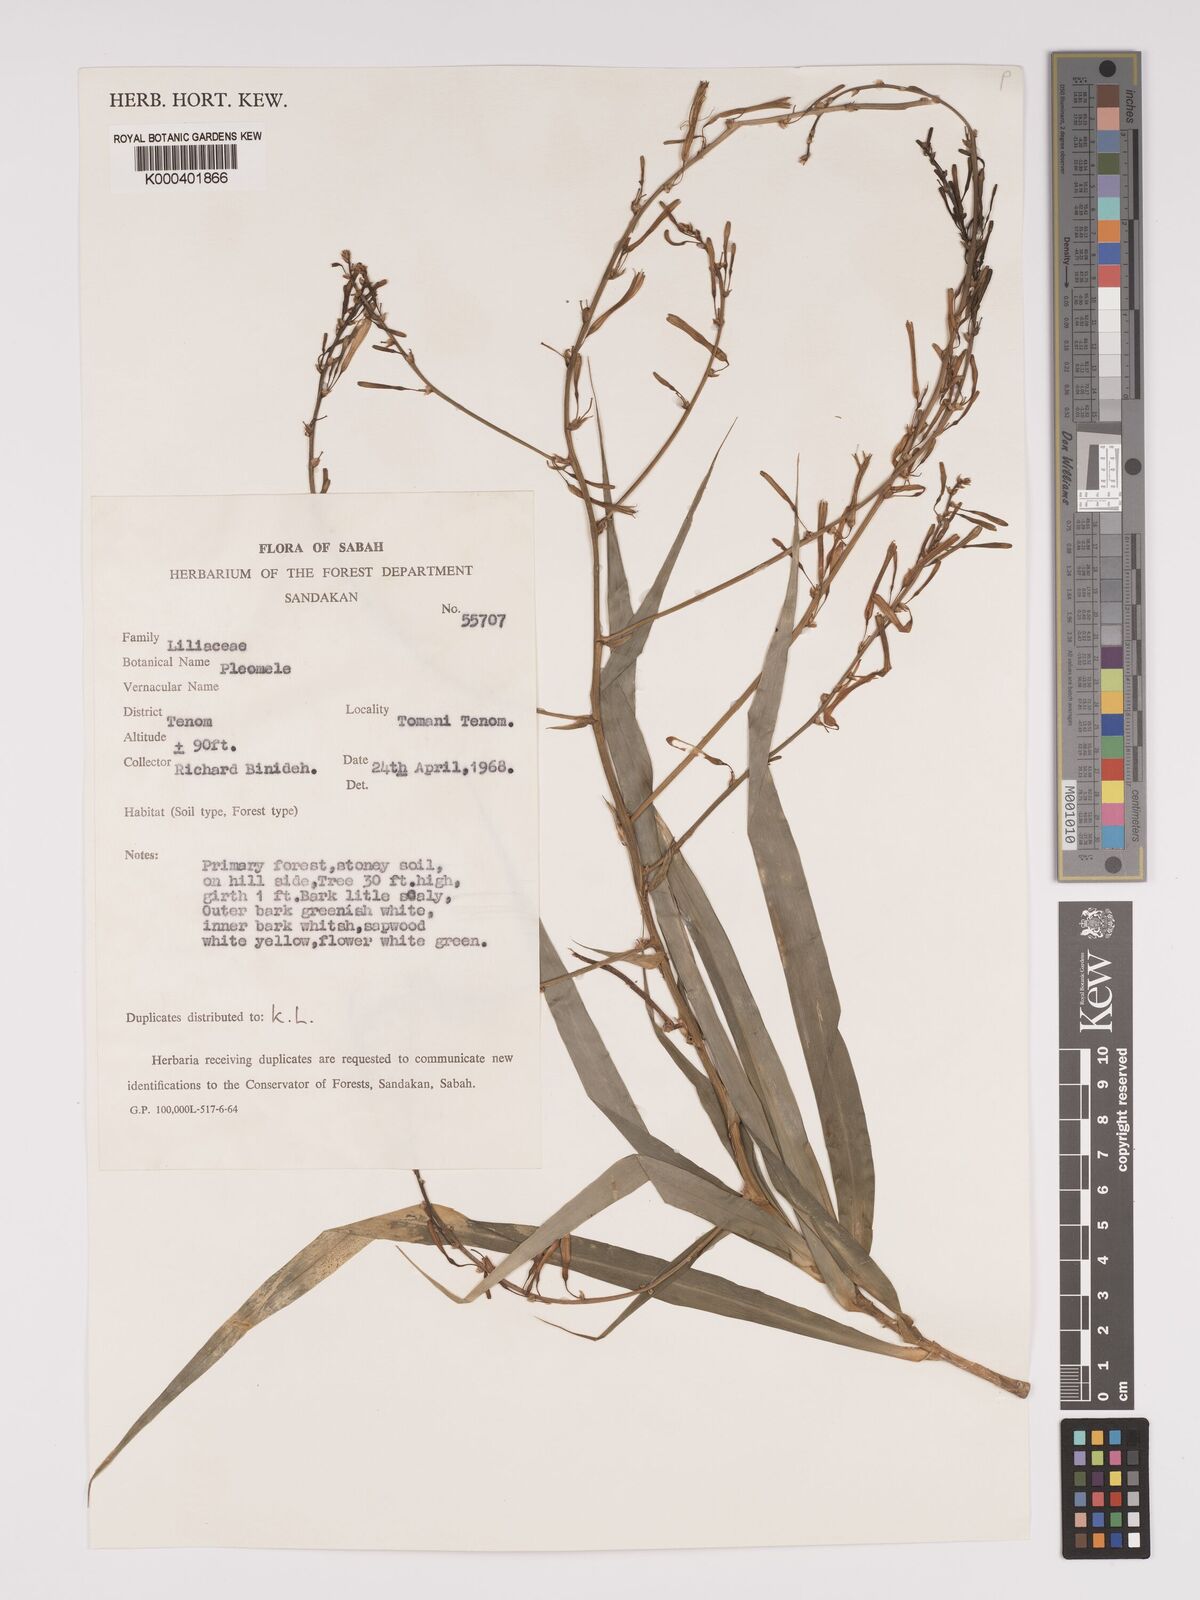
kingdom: Plantae
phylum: Tracheophyta
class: Liliopsida
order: Asparagales
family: Asparagaceae
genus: Dracaena
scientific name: Dracaena
